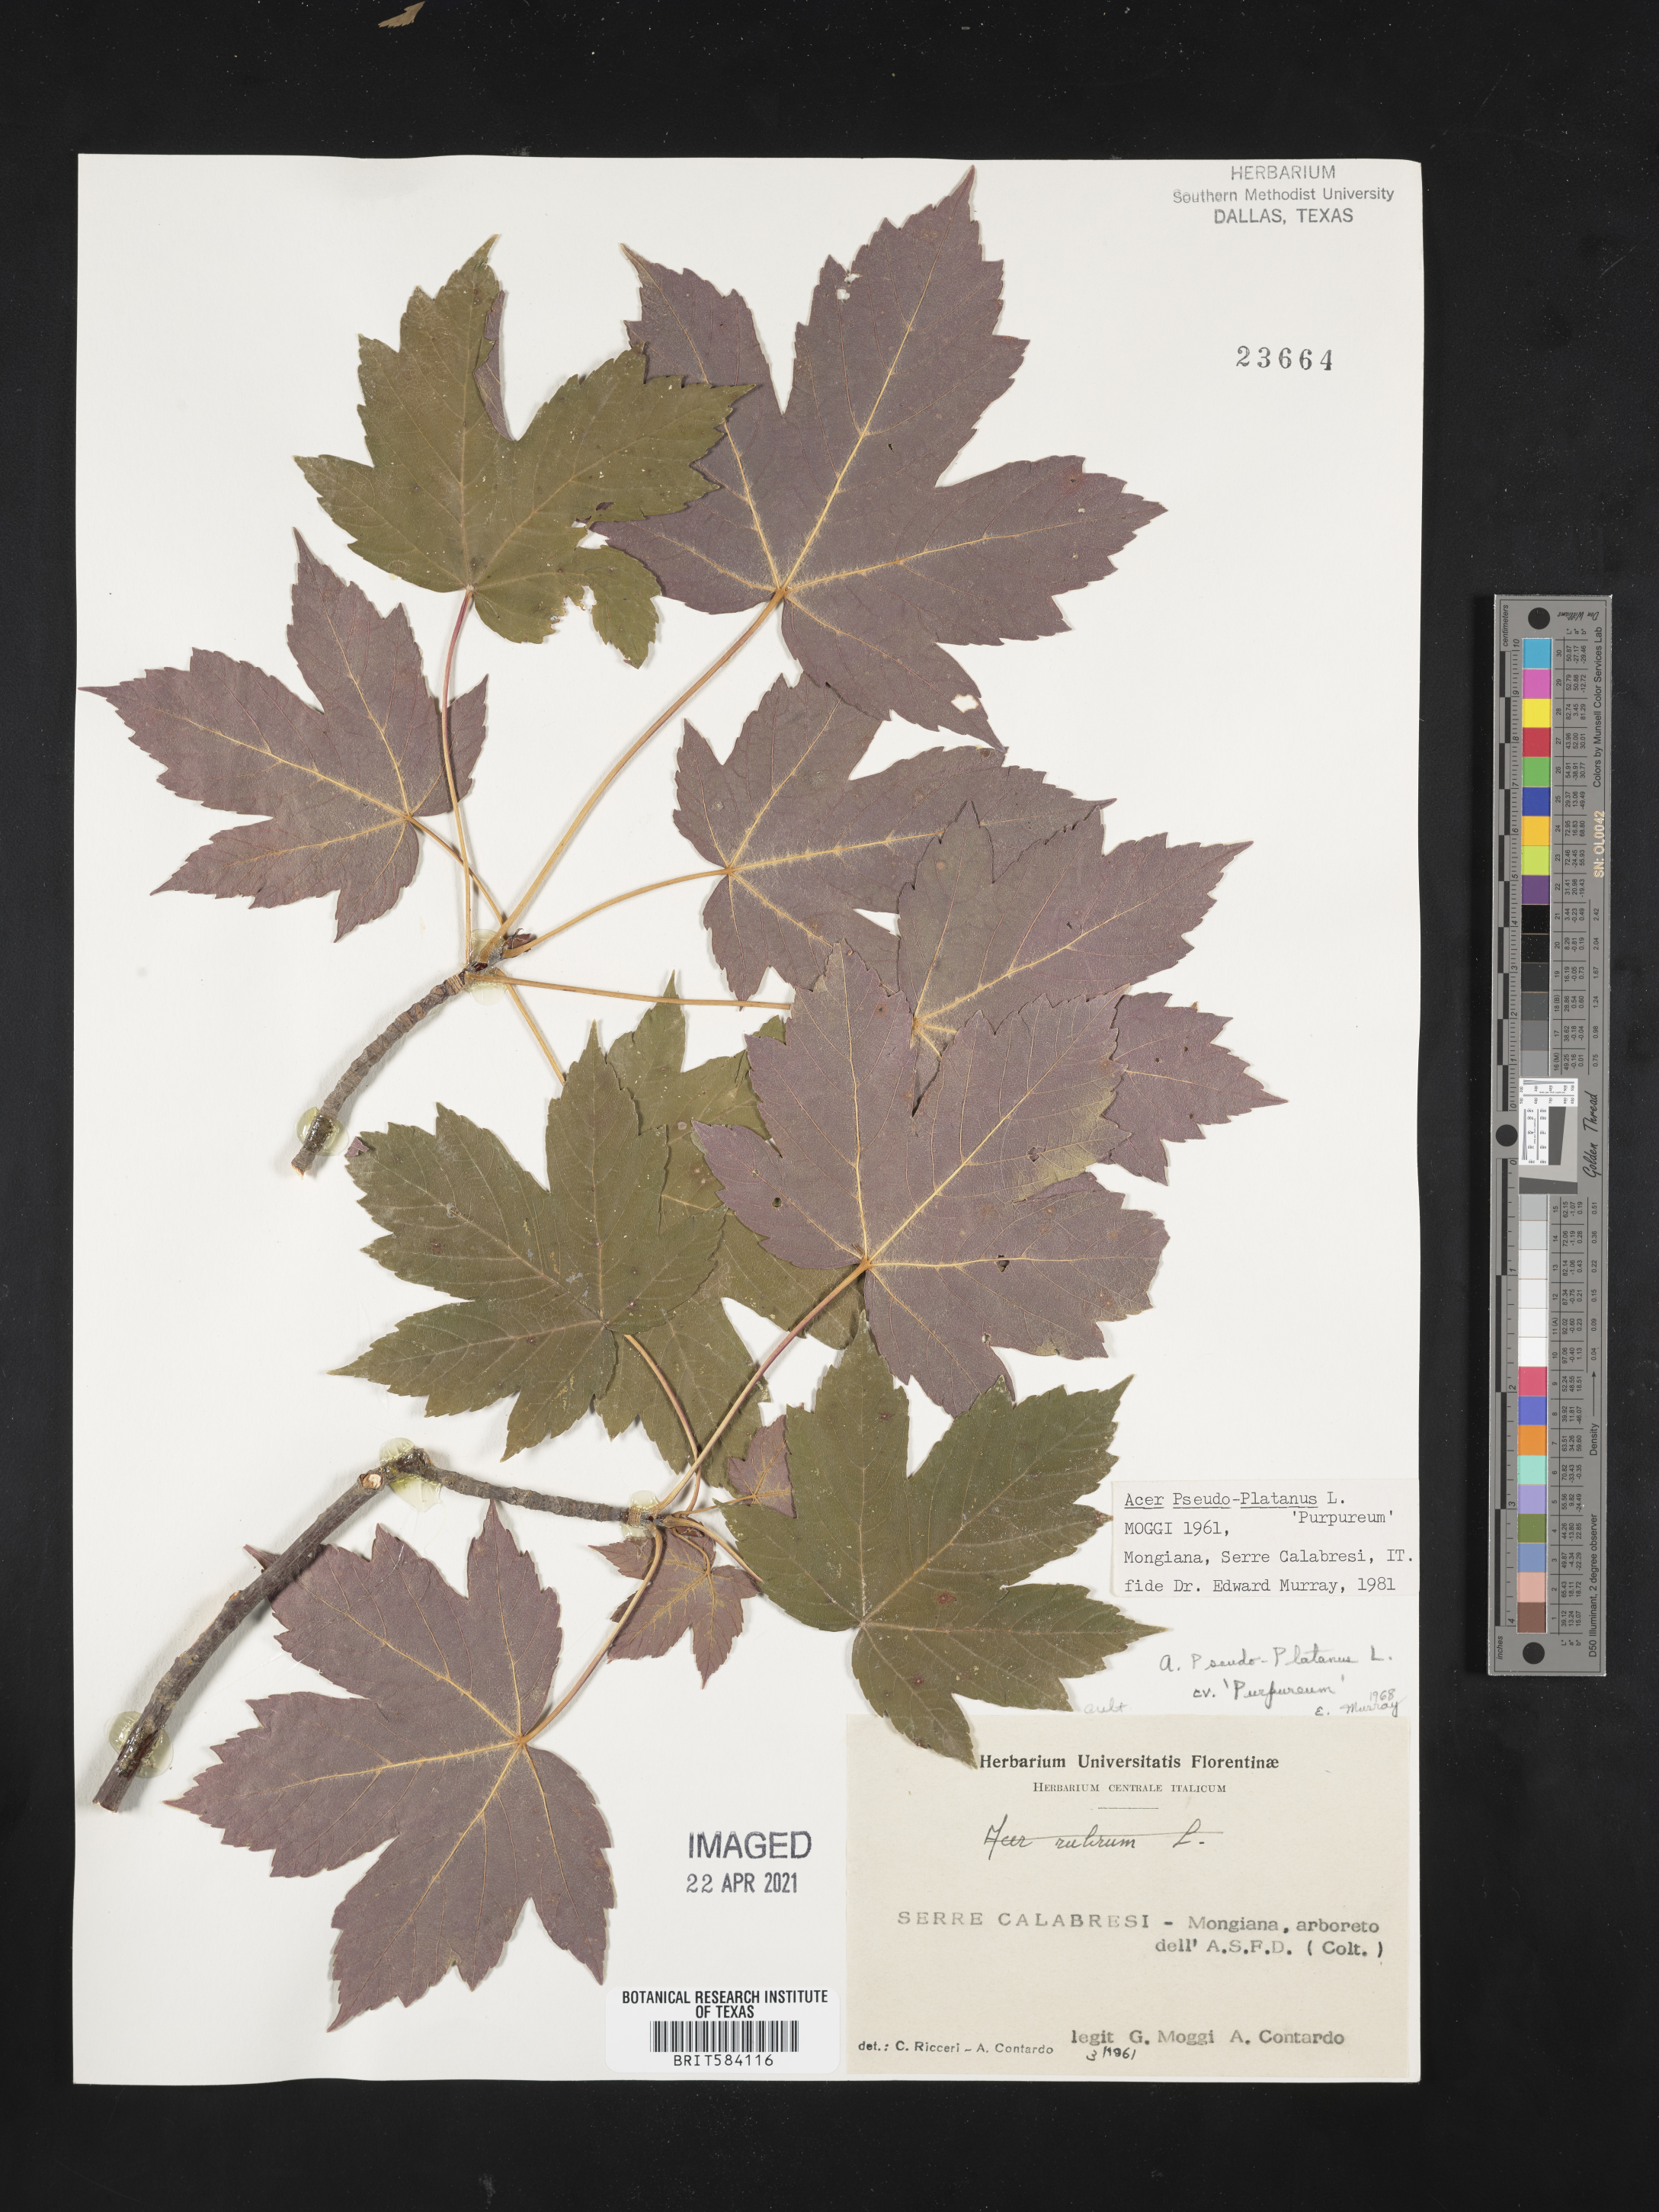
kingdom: Plantae
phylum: Tracheophyta
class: Magnoliopsida
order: Sapindales
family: Sapindaceae
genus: Acer
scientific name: Acer pseudoplatanus
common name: Sycamore
